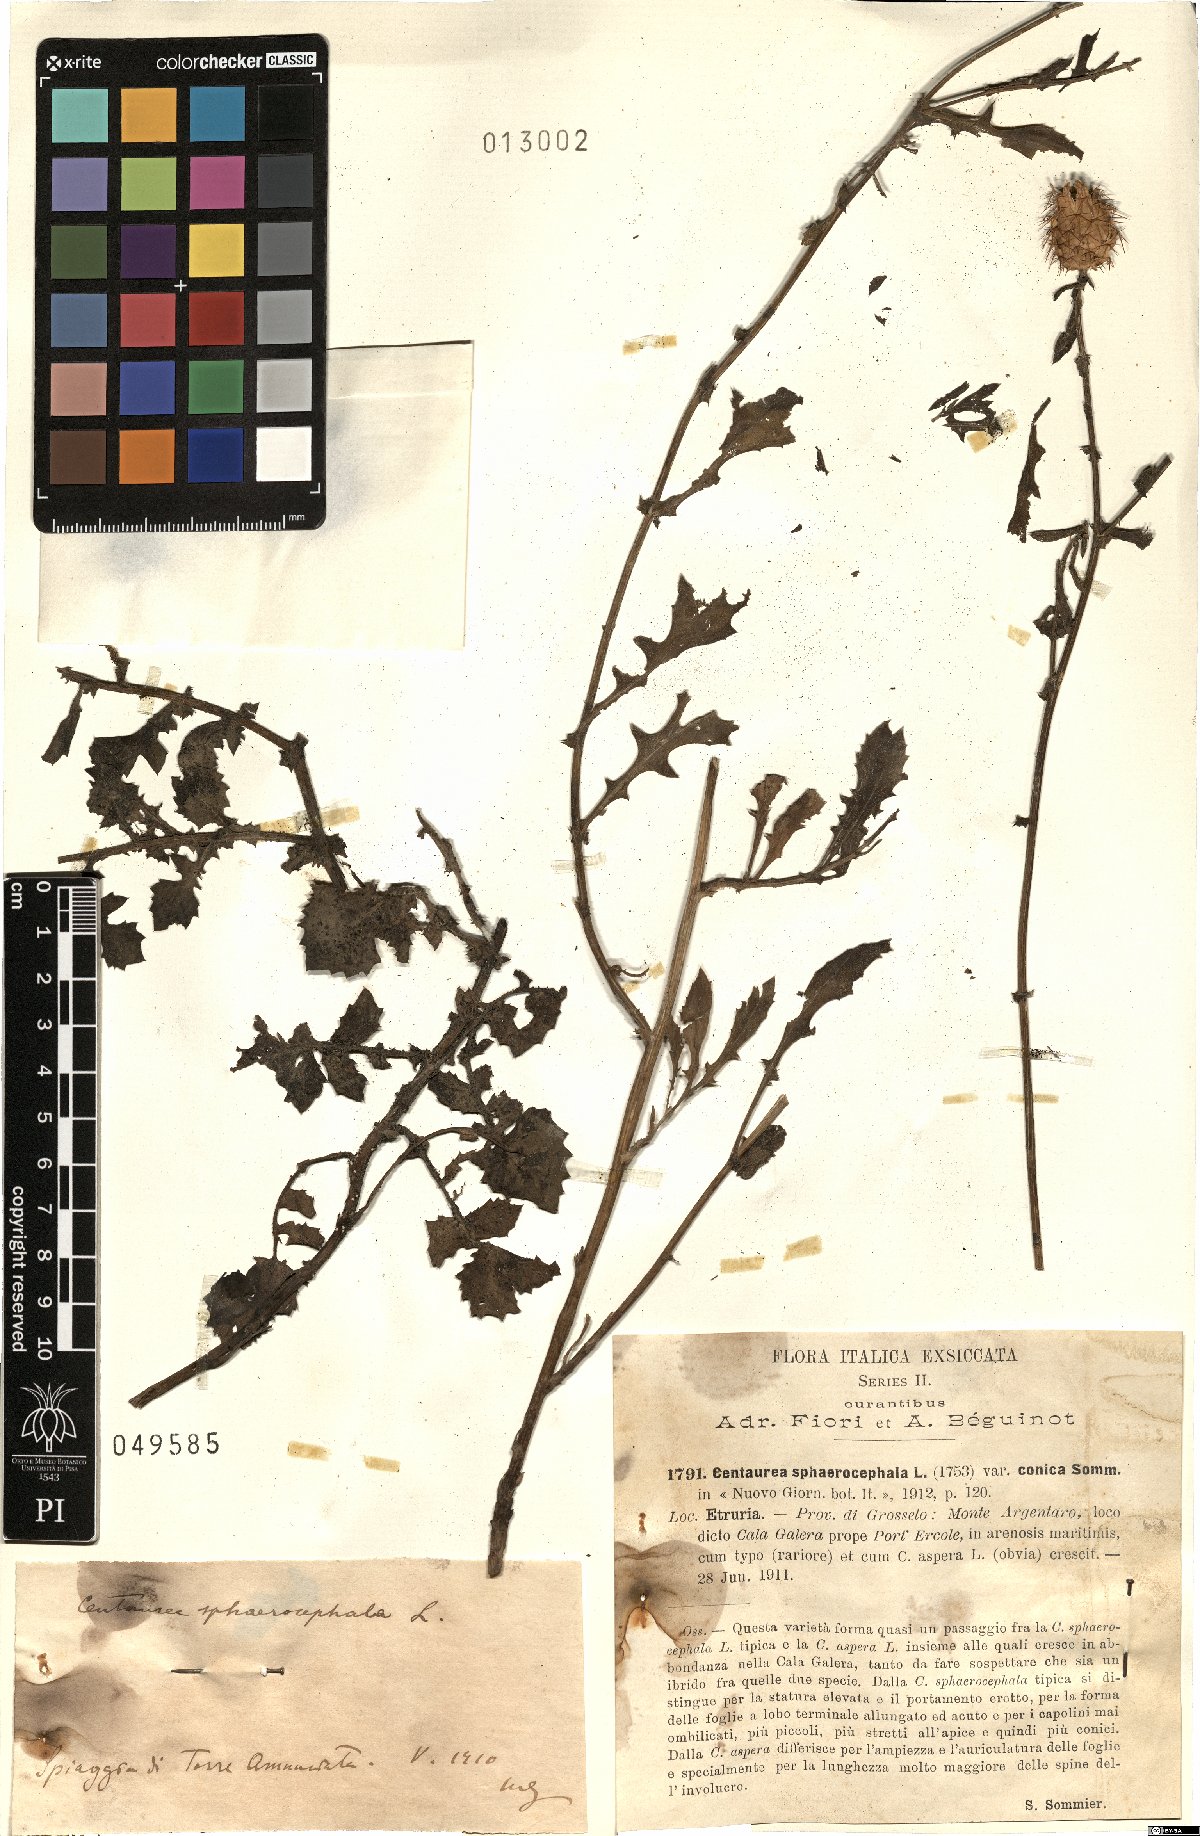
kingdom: Plantae
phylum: Tracheophyta
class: Magnoliopsida
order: Asterales
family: Asteraceae
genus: Centaurea
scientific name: Centaurea sphaerocephala
